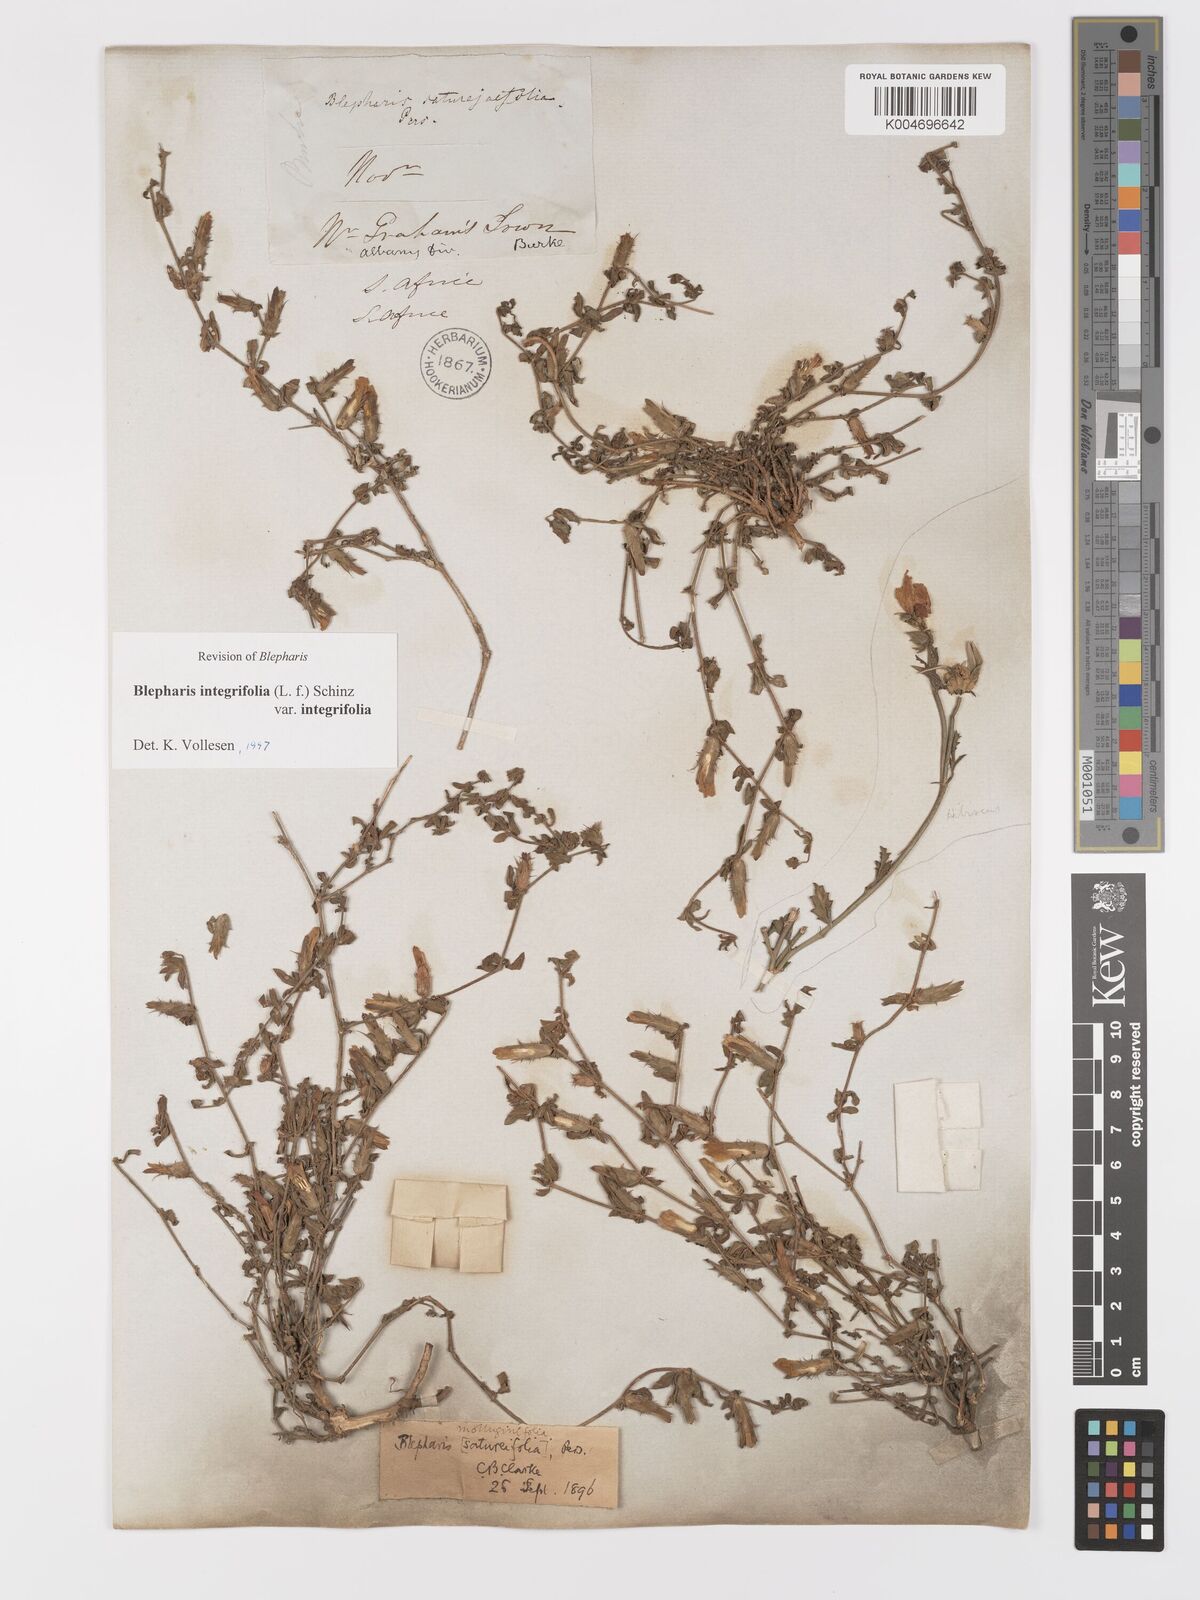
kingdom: Plantae
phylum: Tracheophyta
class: Magnoliopsida
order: Lamiales
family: Acanthaceae
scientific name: Acanthaceae
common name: Acanthaceae
